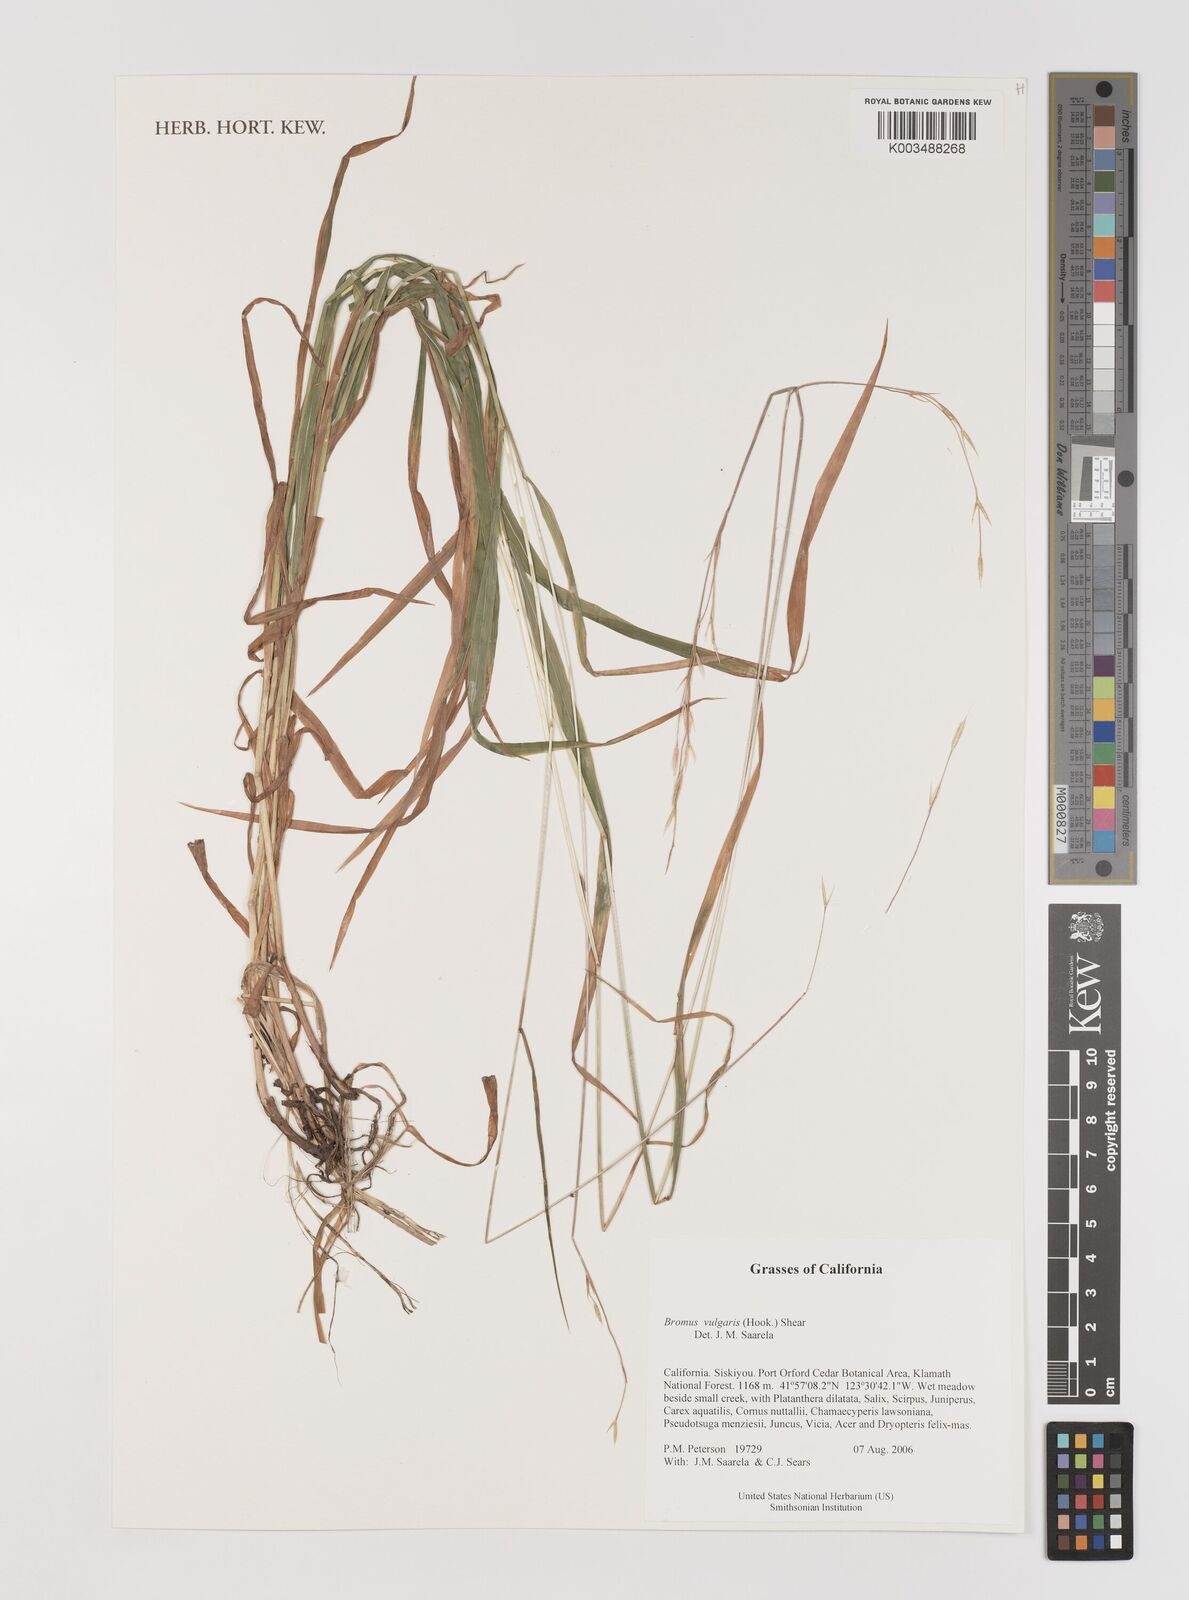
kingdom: Plantae
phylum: Tracheophyta
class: Liliopsida
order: Poales
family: Poaceae
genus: Bromus
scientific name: Bromus vulgaris
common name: Columbia brome
